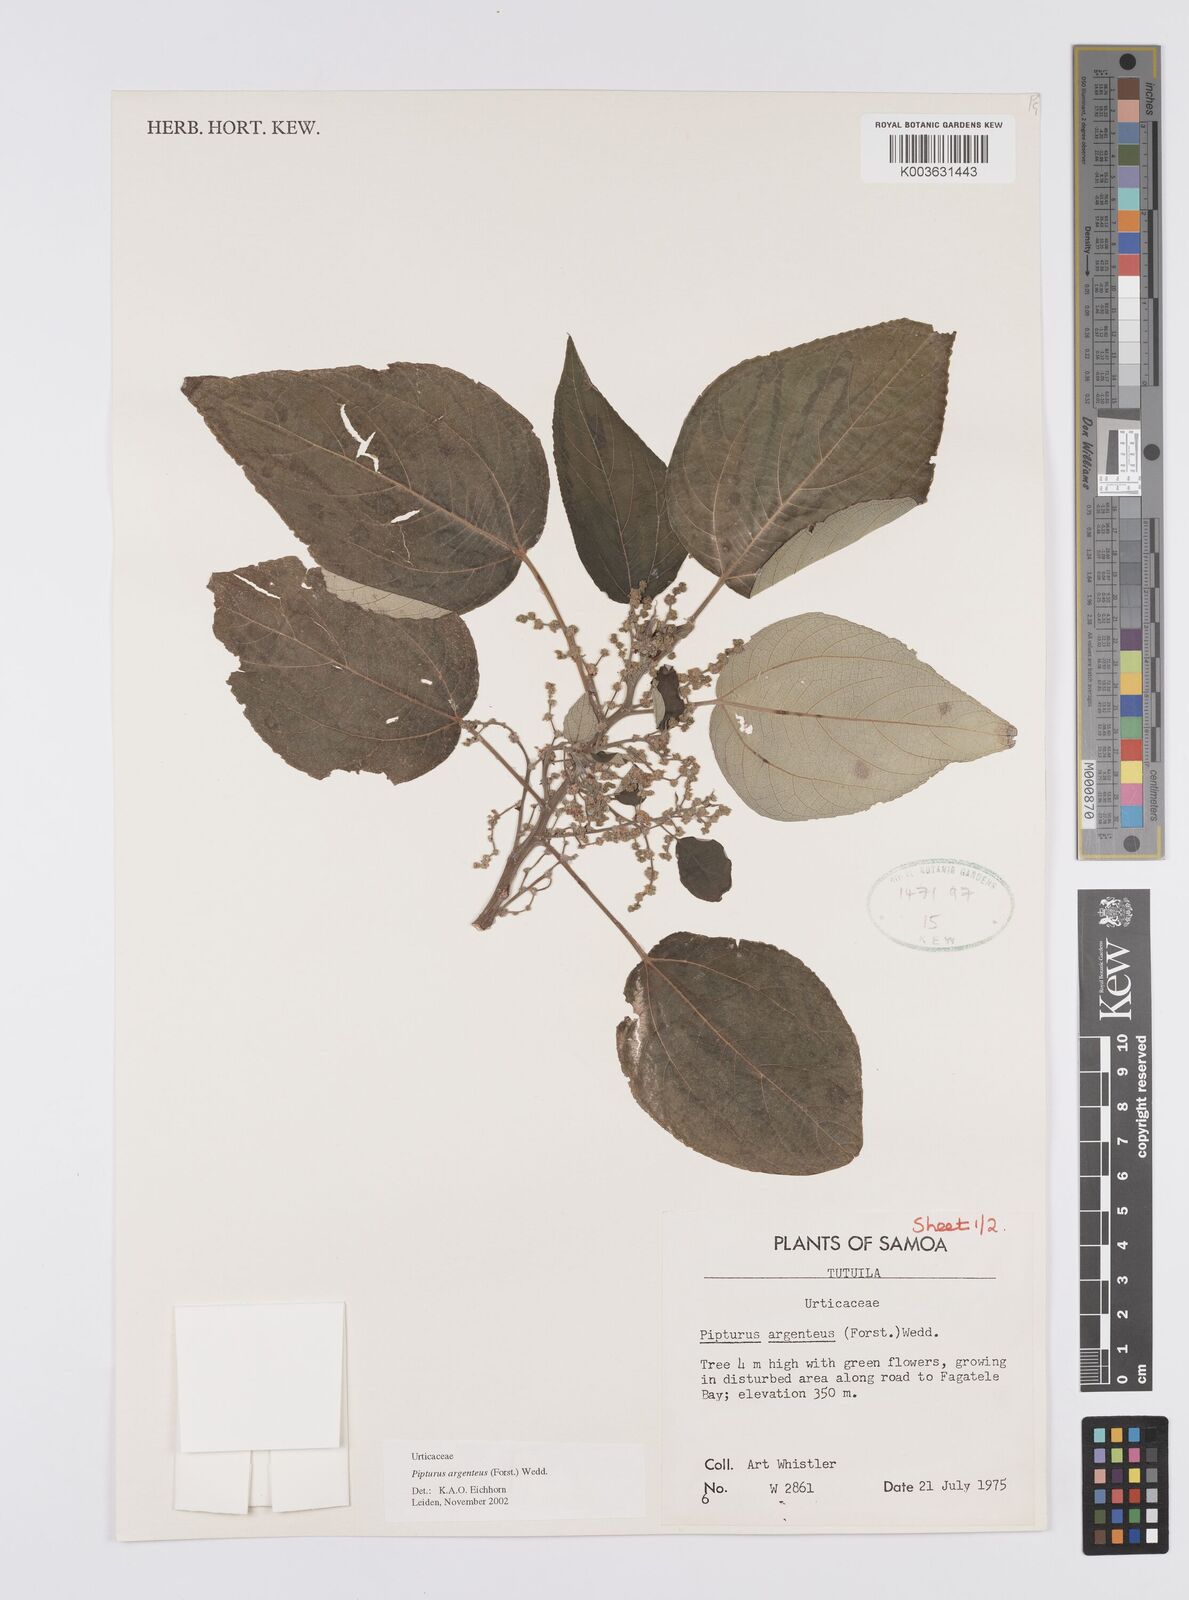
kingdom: Plantae
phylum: Tracheophyta
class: Magnoliopsida
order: Rosales
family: Urticaceae
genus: Pipturus
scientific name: Pipturus argenteus
